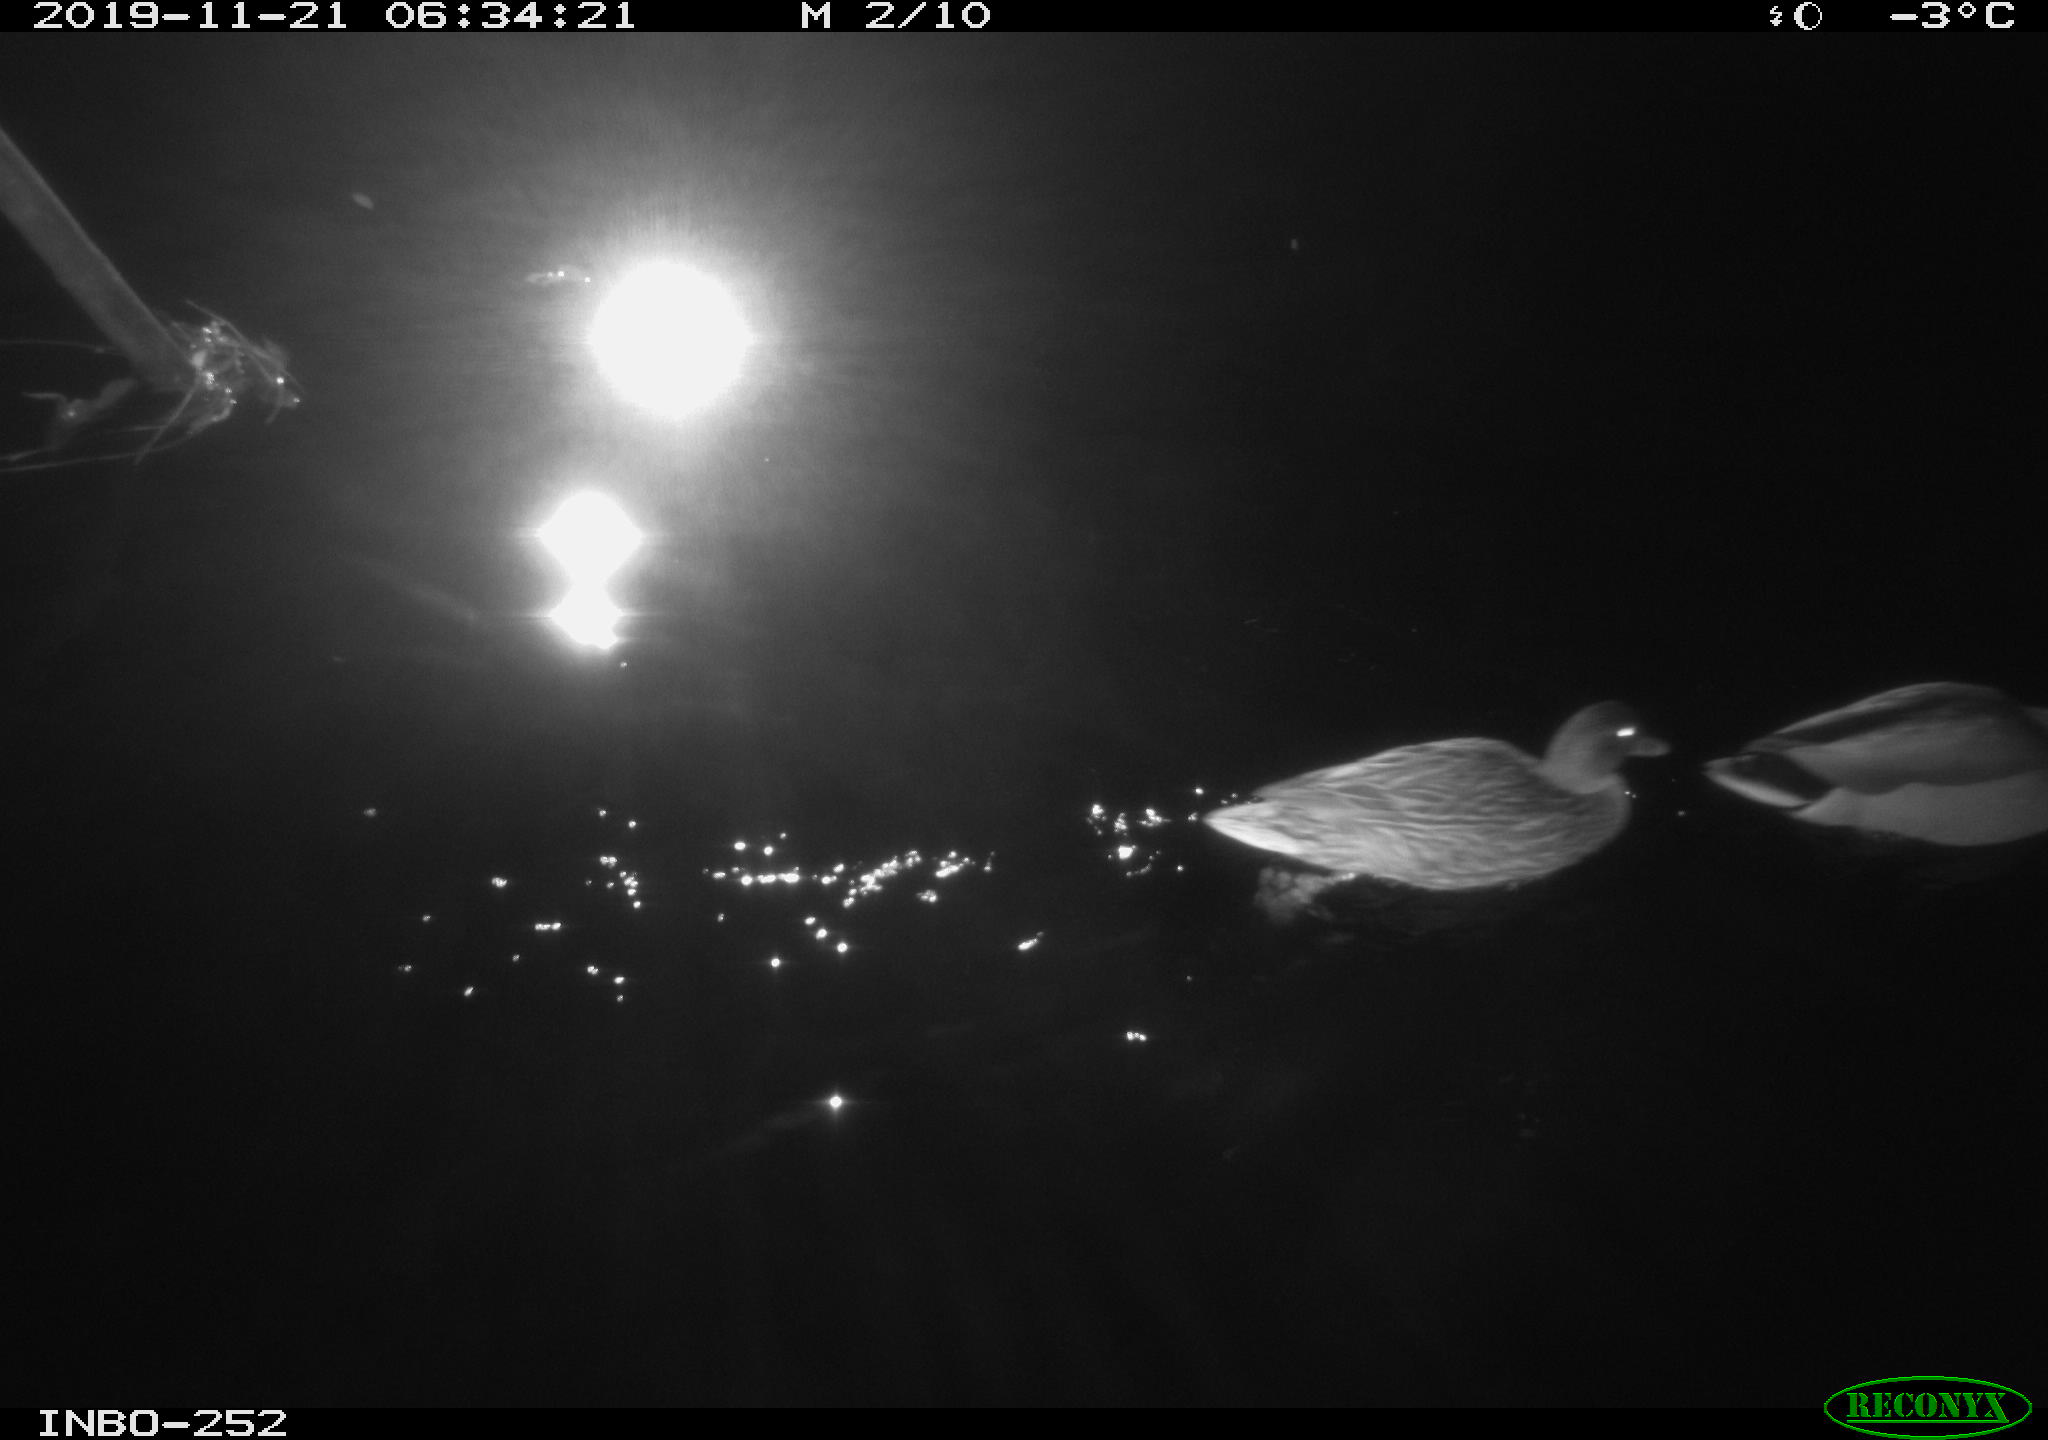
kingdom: Animalia
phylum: Chordata
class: Aves
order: Anseriformes
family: Anatidae
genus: Anas
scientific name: Anas platyrhynchos
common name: Mallard
